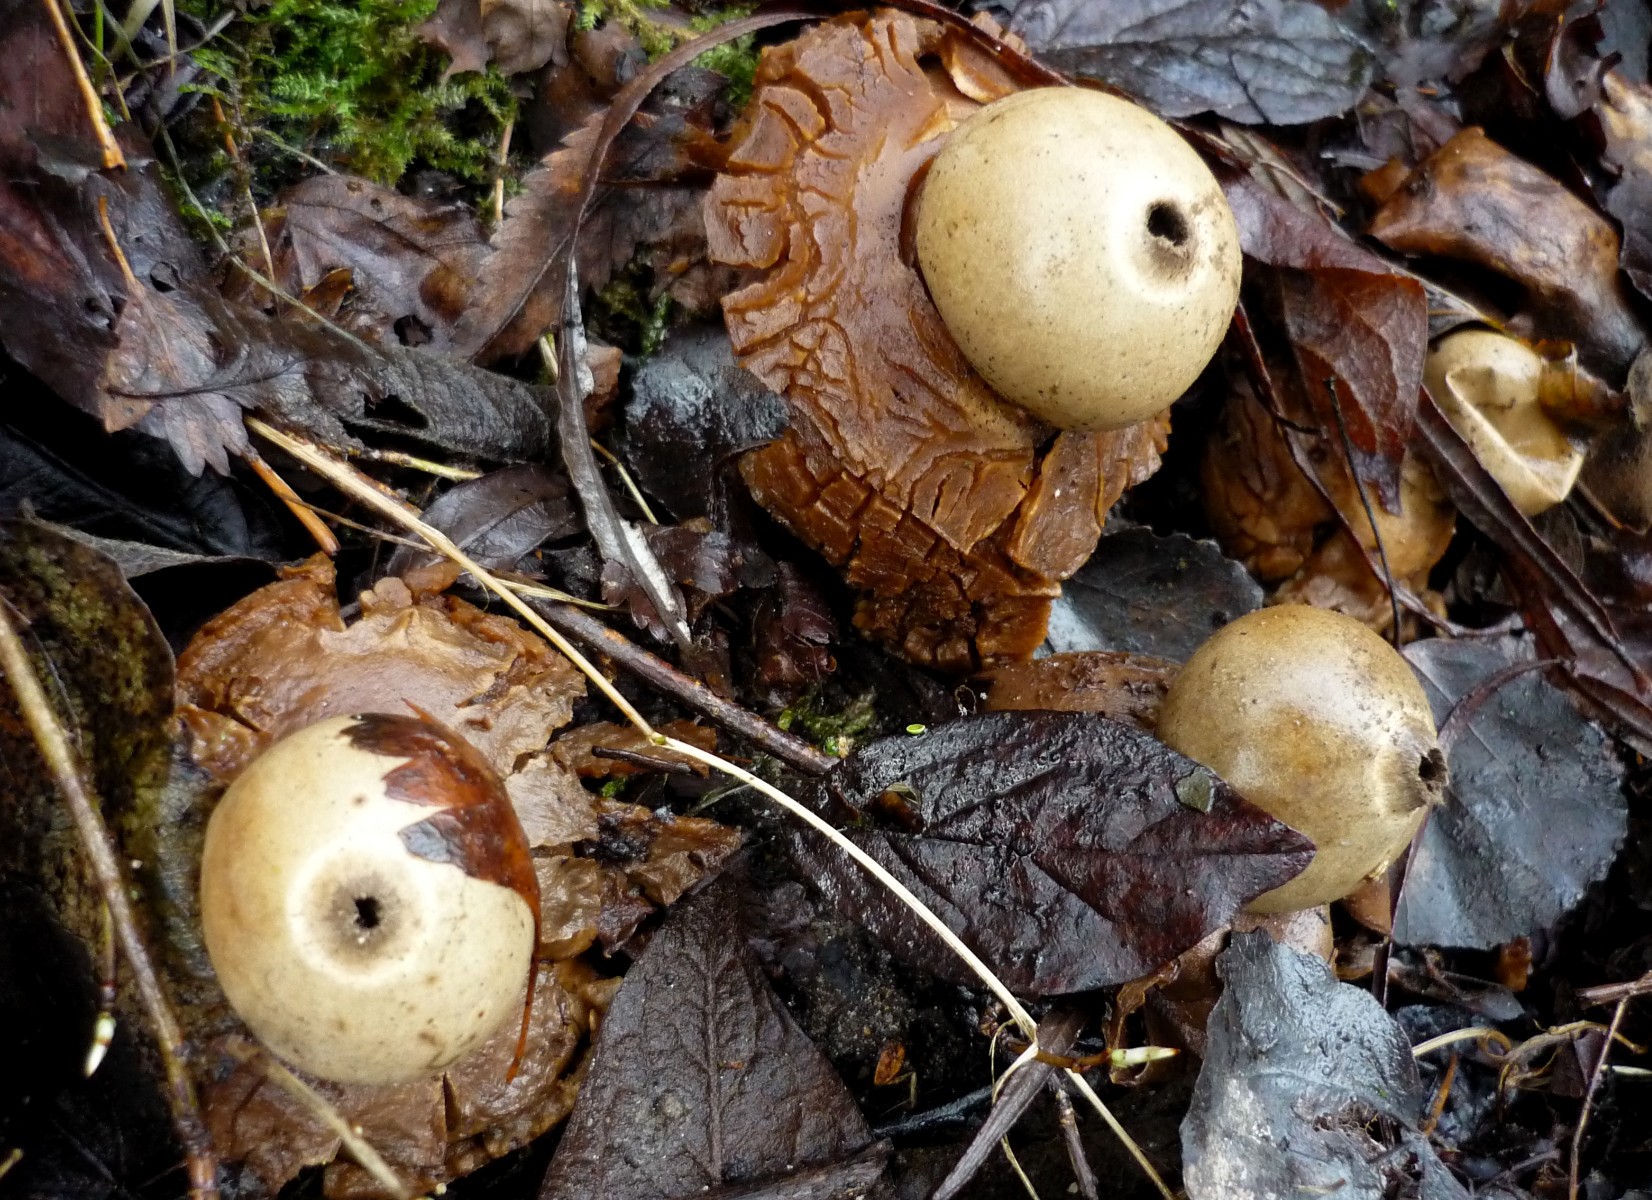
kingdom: Fungi
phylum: Basidiomycota
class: Agaricomycetes
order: Geastrales
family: Geastraceae
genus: Geastrum
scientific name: Geastrum michelianum
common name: kødet stjernebold
